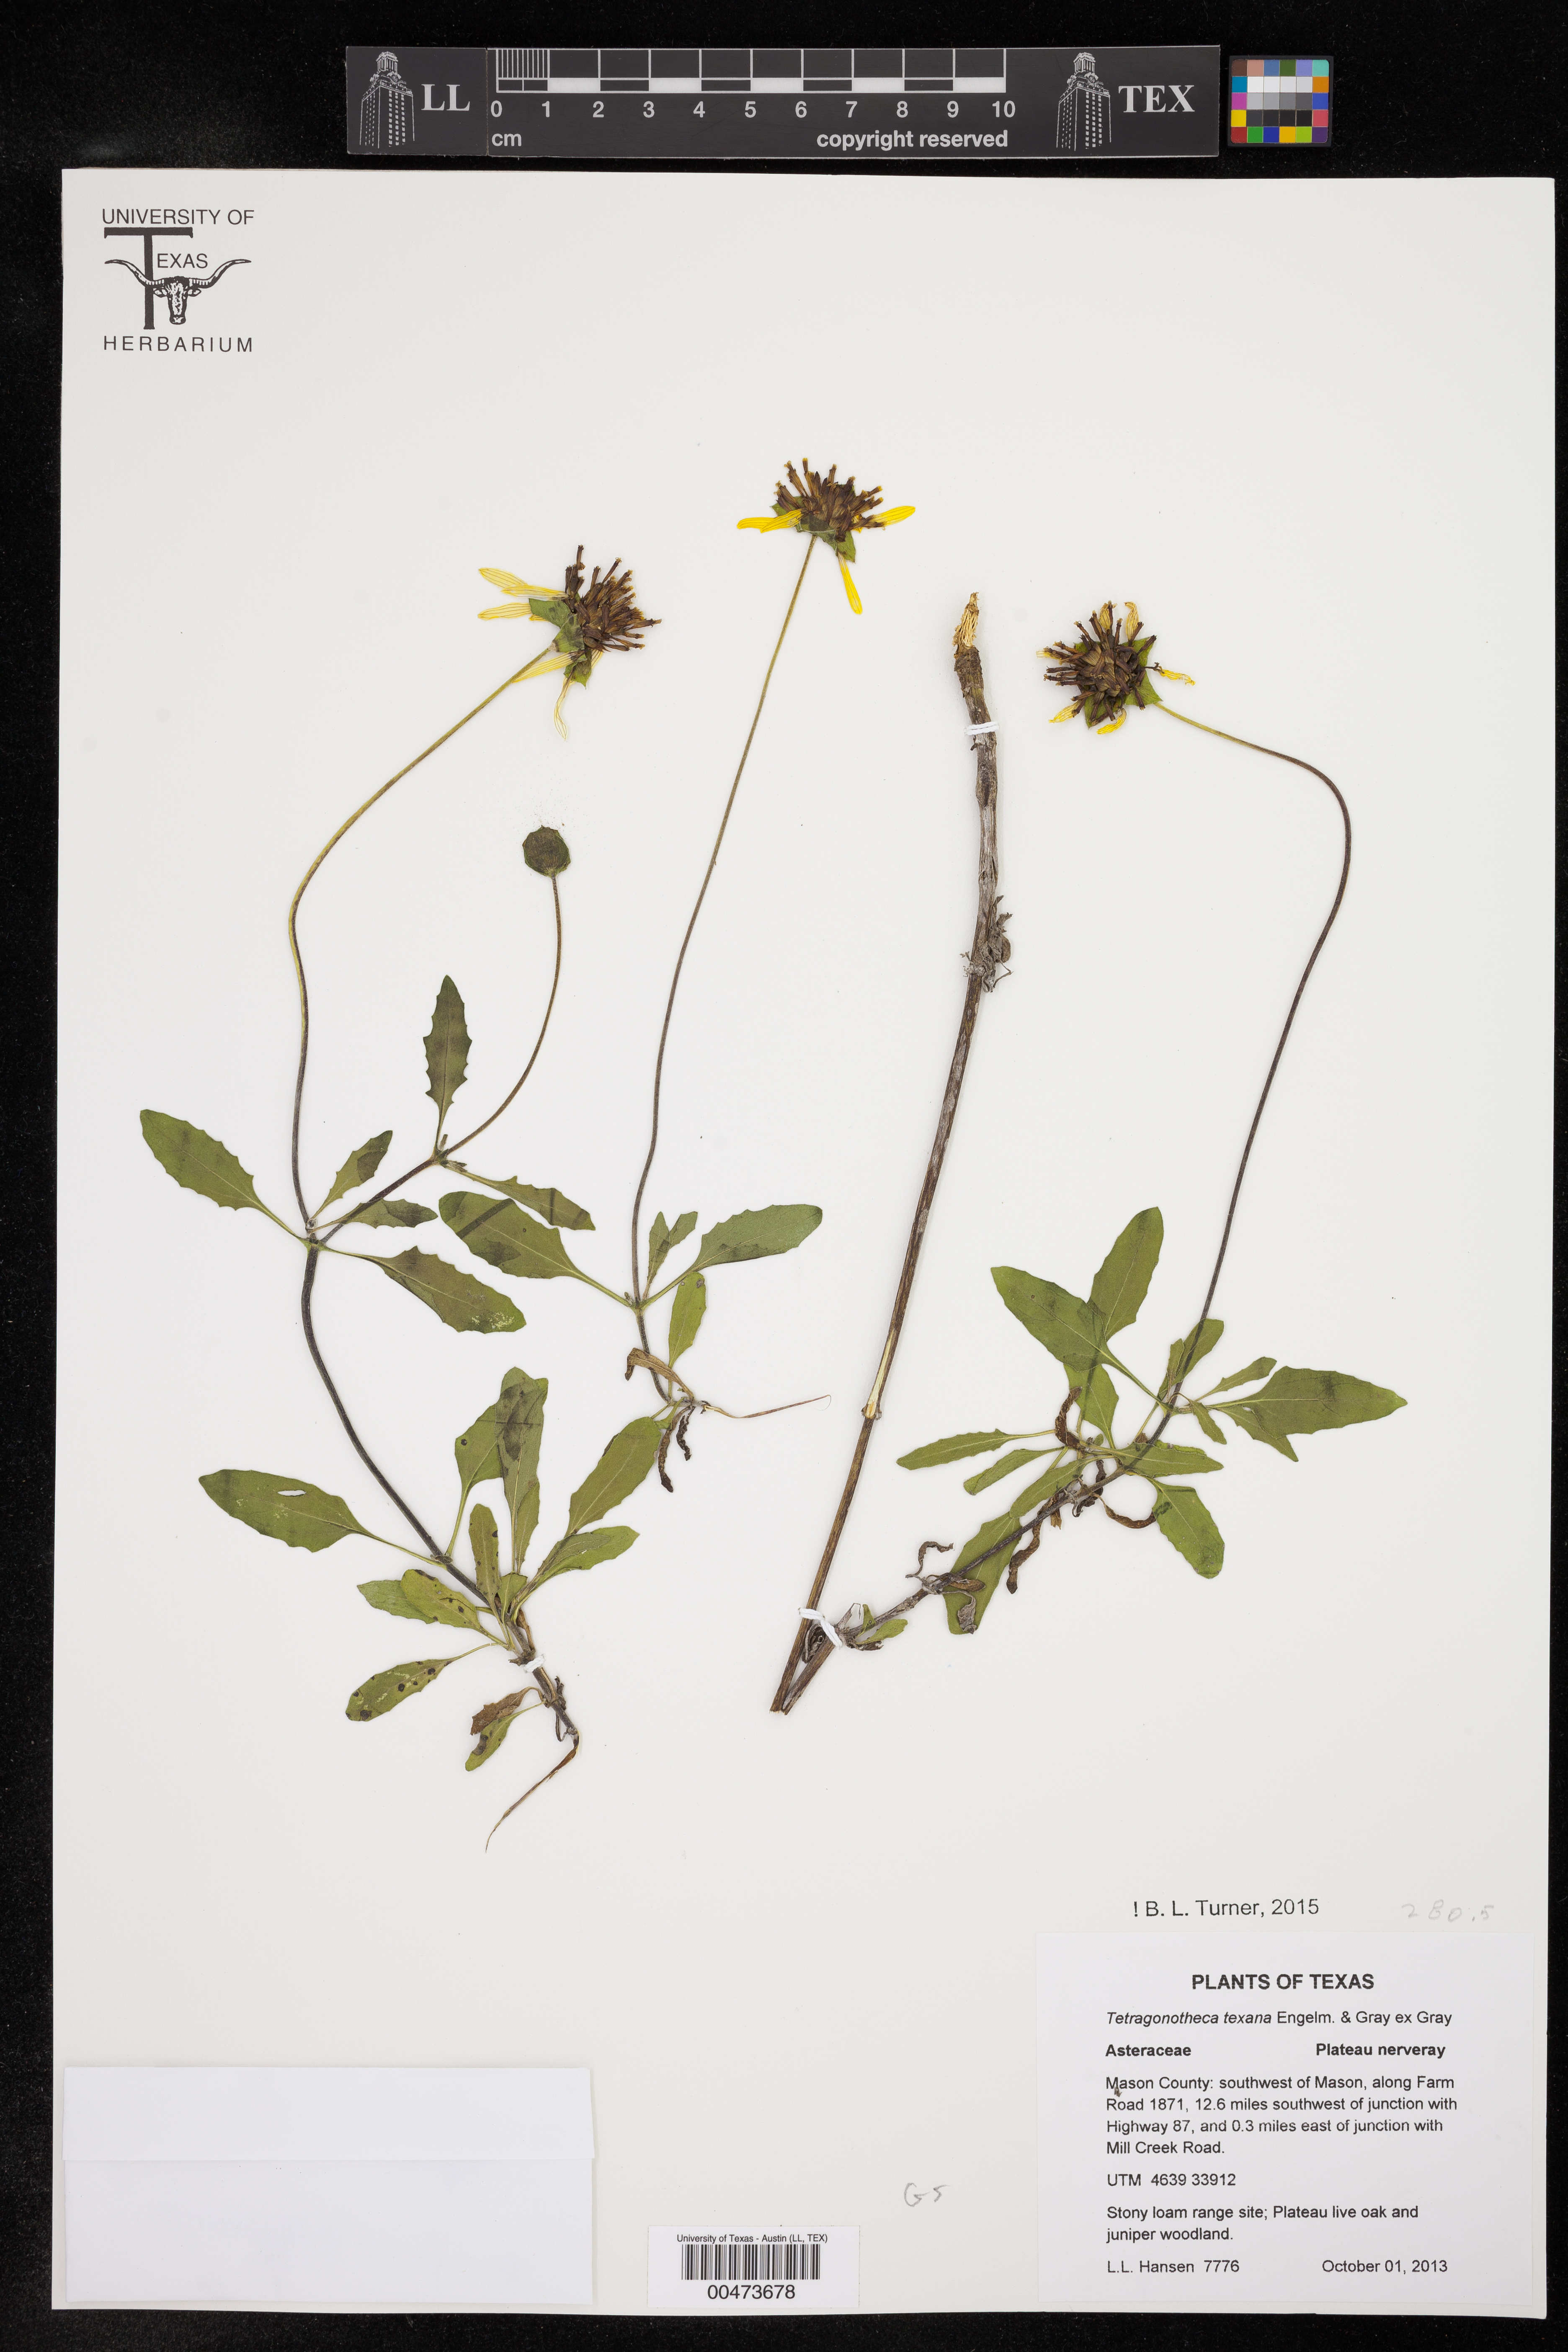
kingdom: Plantae
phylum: Tracheophyta
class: Magnoliopsida
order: Asterales
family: Asteraceae
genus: Tetragonotheca
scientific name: Tetragonotheca texana
